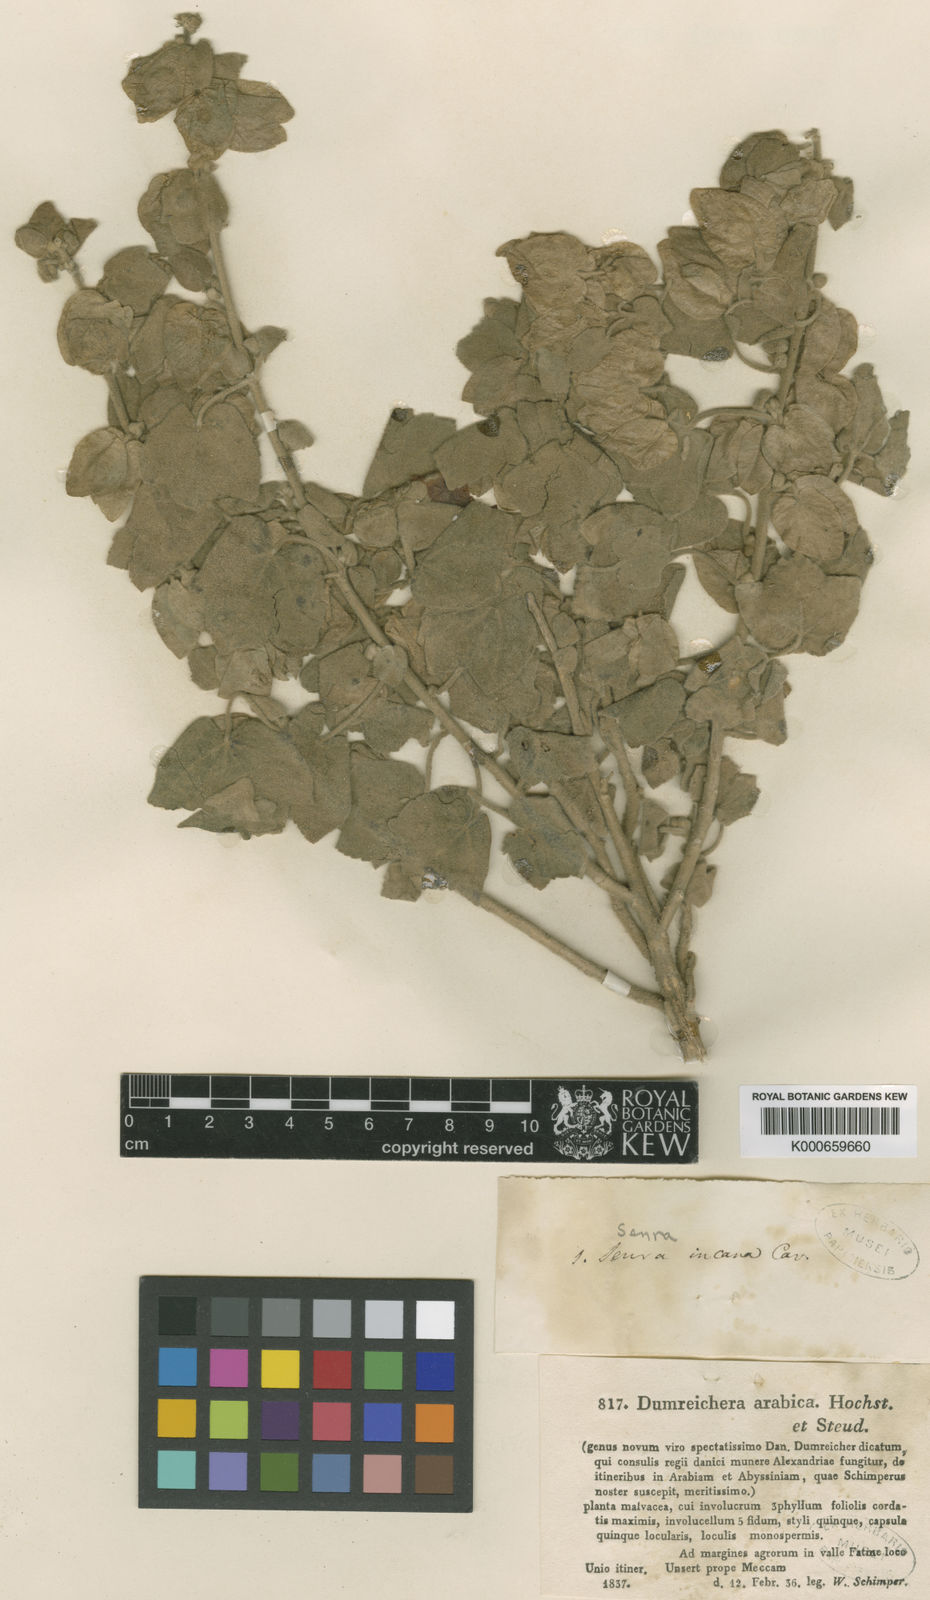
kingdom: Plantae
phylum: Tracheophyta
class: Magnoliopsida
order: Malvales
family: Malvaceae
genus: Senra
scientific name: Senra incana
